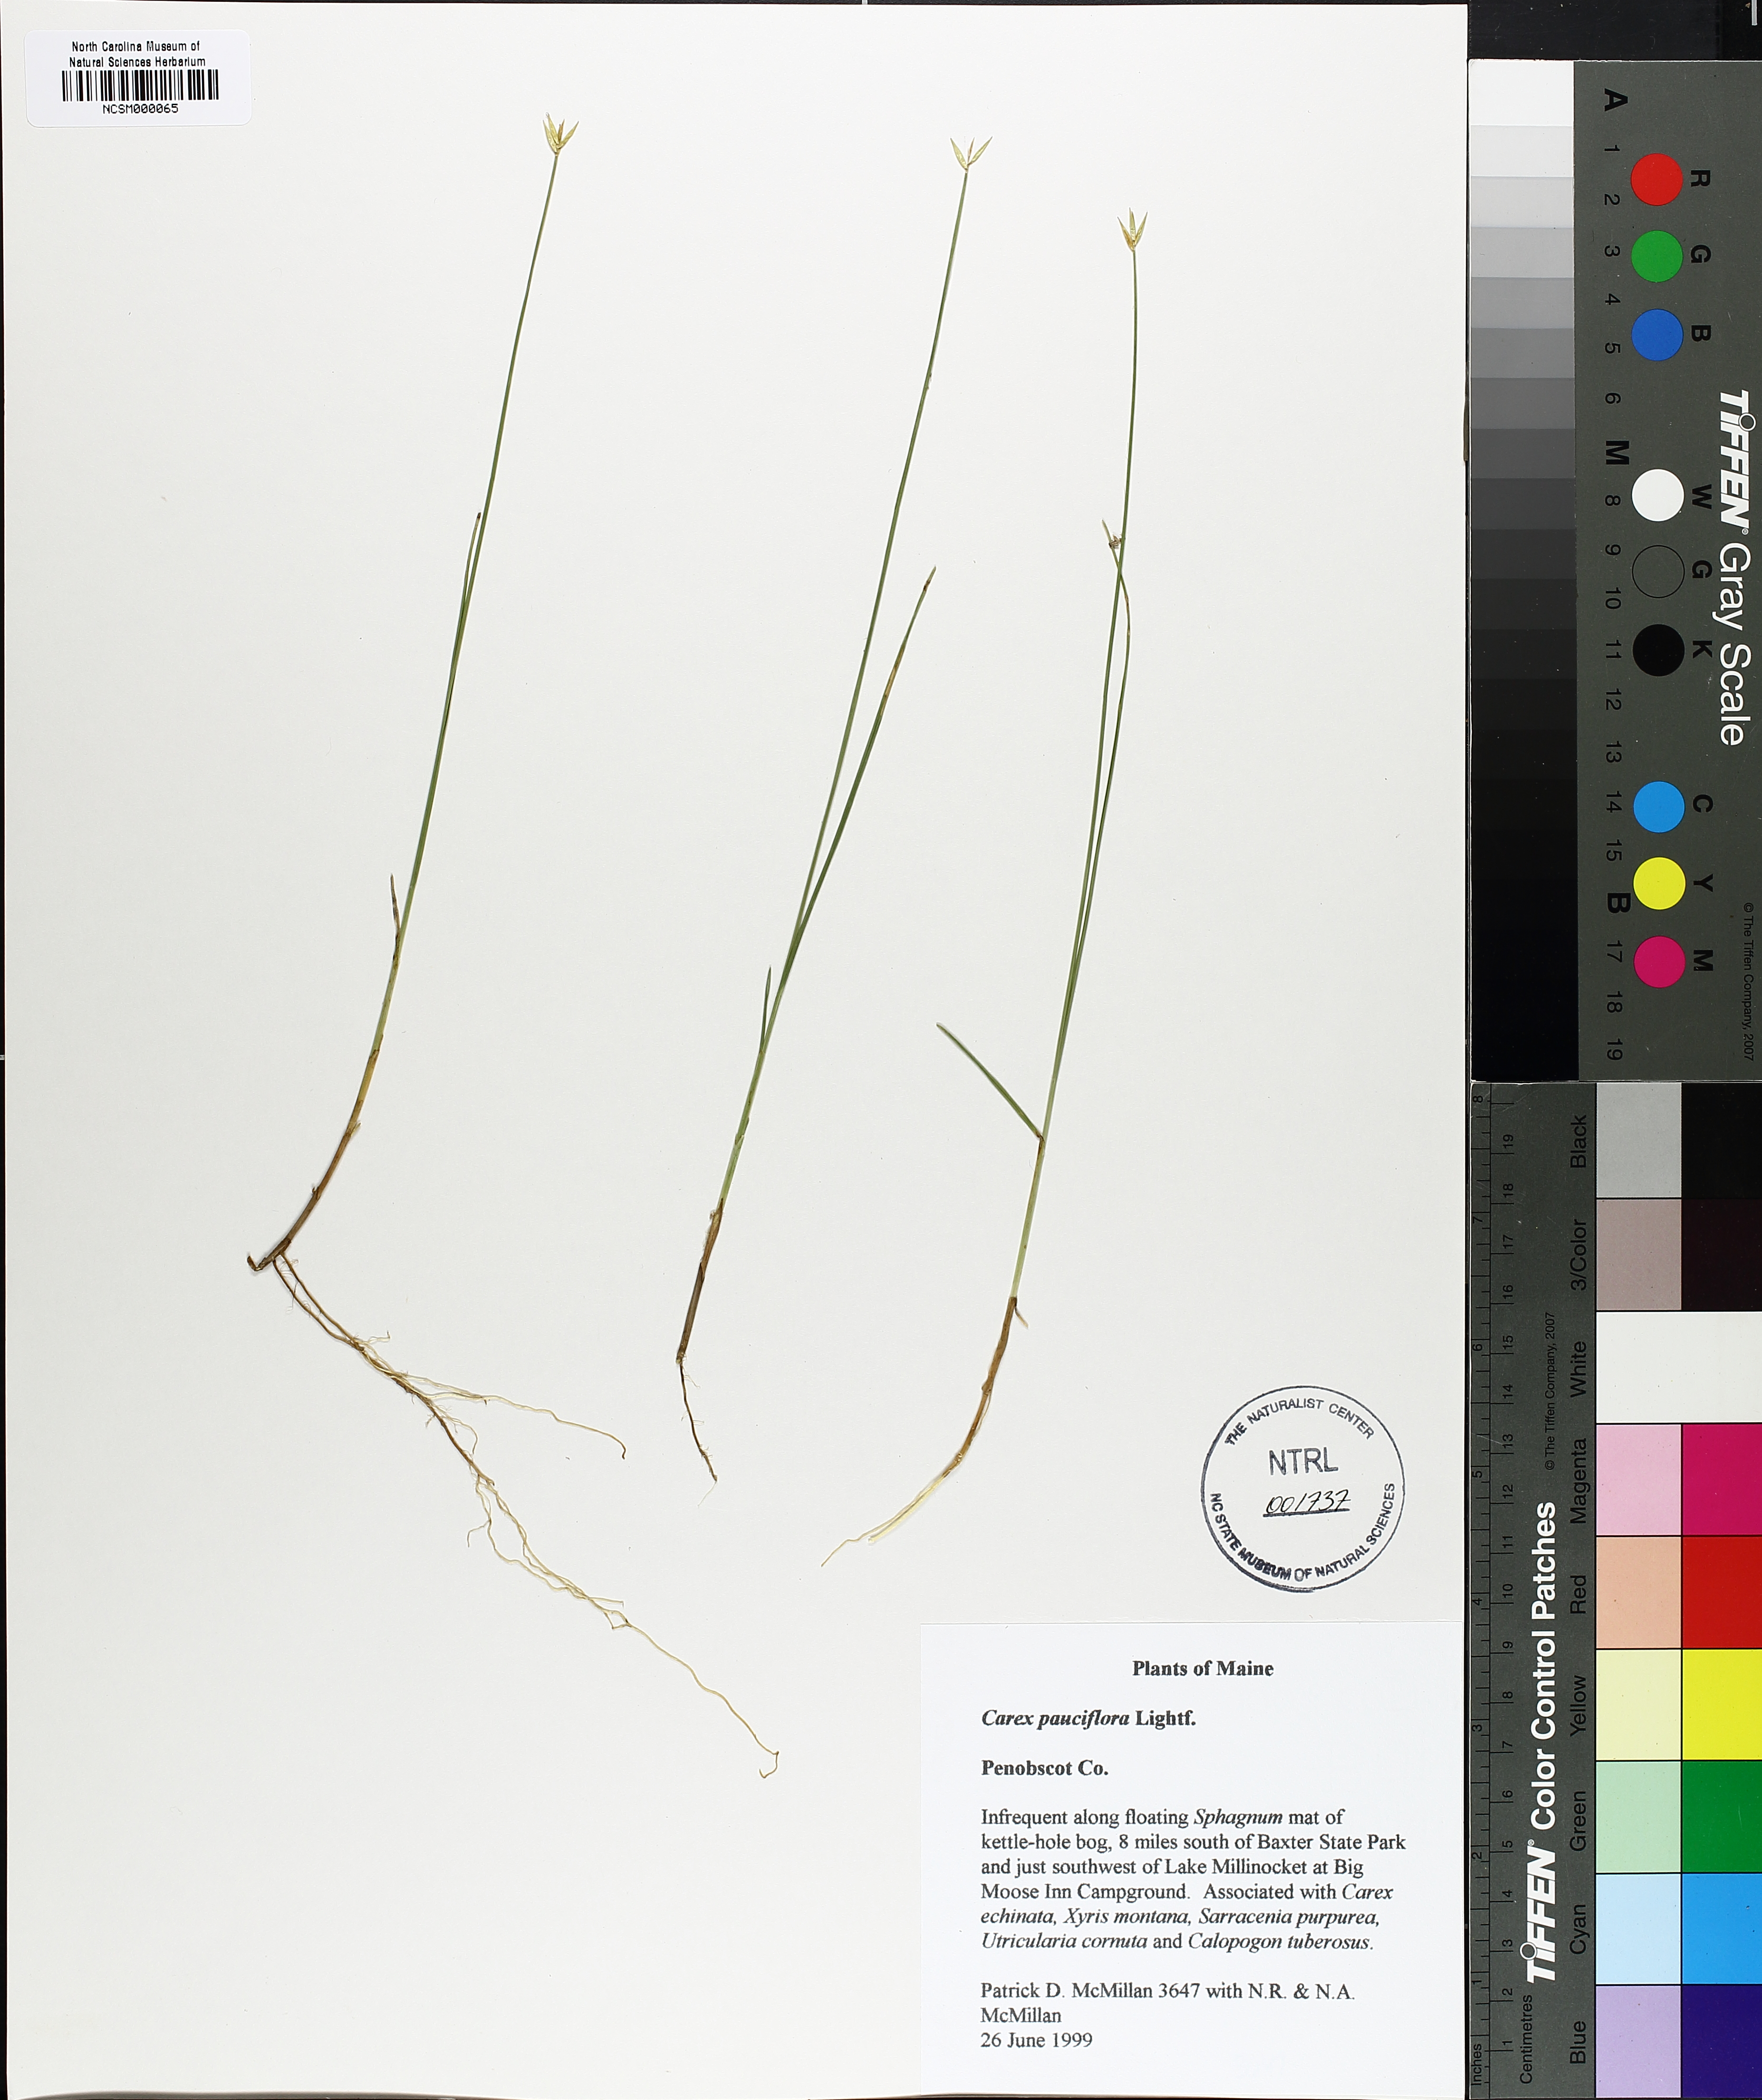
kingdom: Plantae
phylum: Tracheophyta
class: Liliopsida
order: Poales
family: Cyperaceae
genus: Carex
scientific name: Carex pauciflora
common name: Few-flowered sedge
